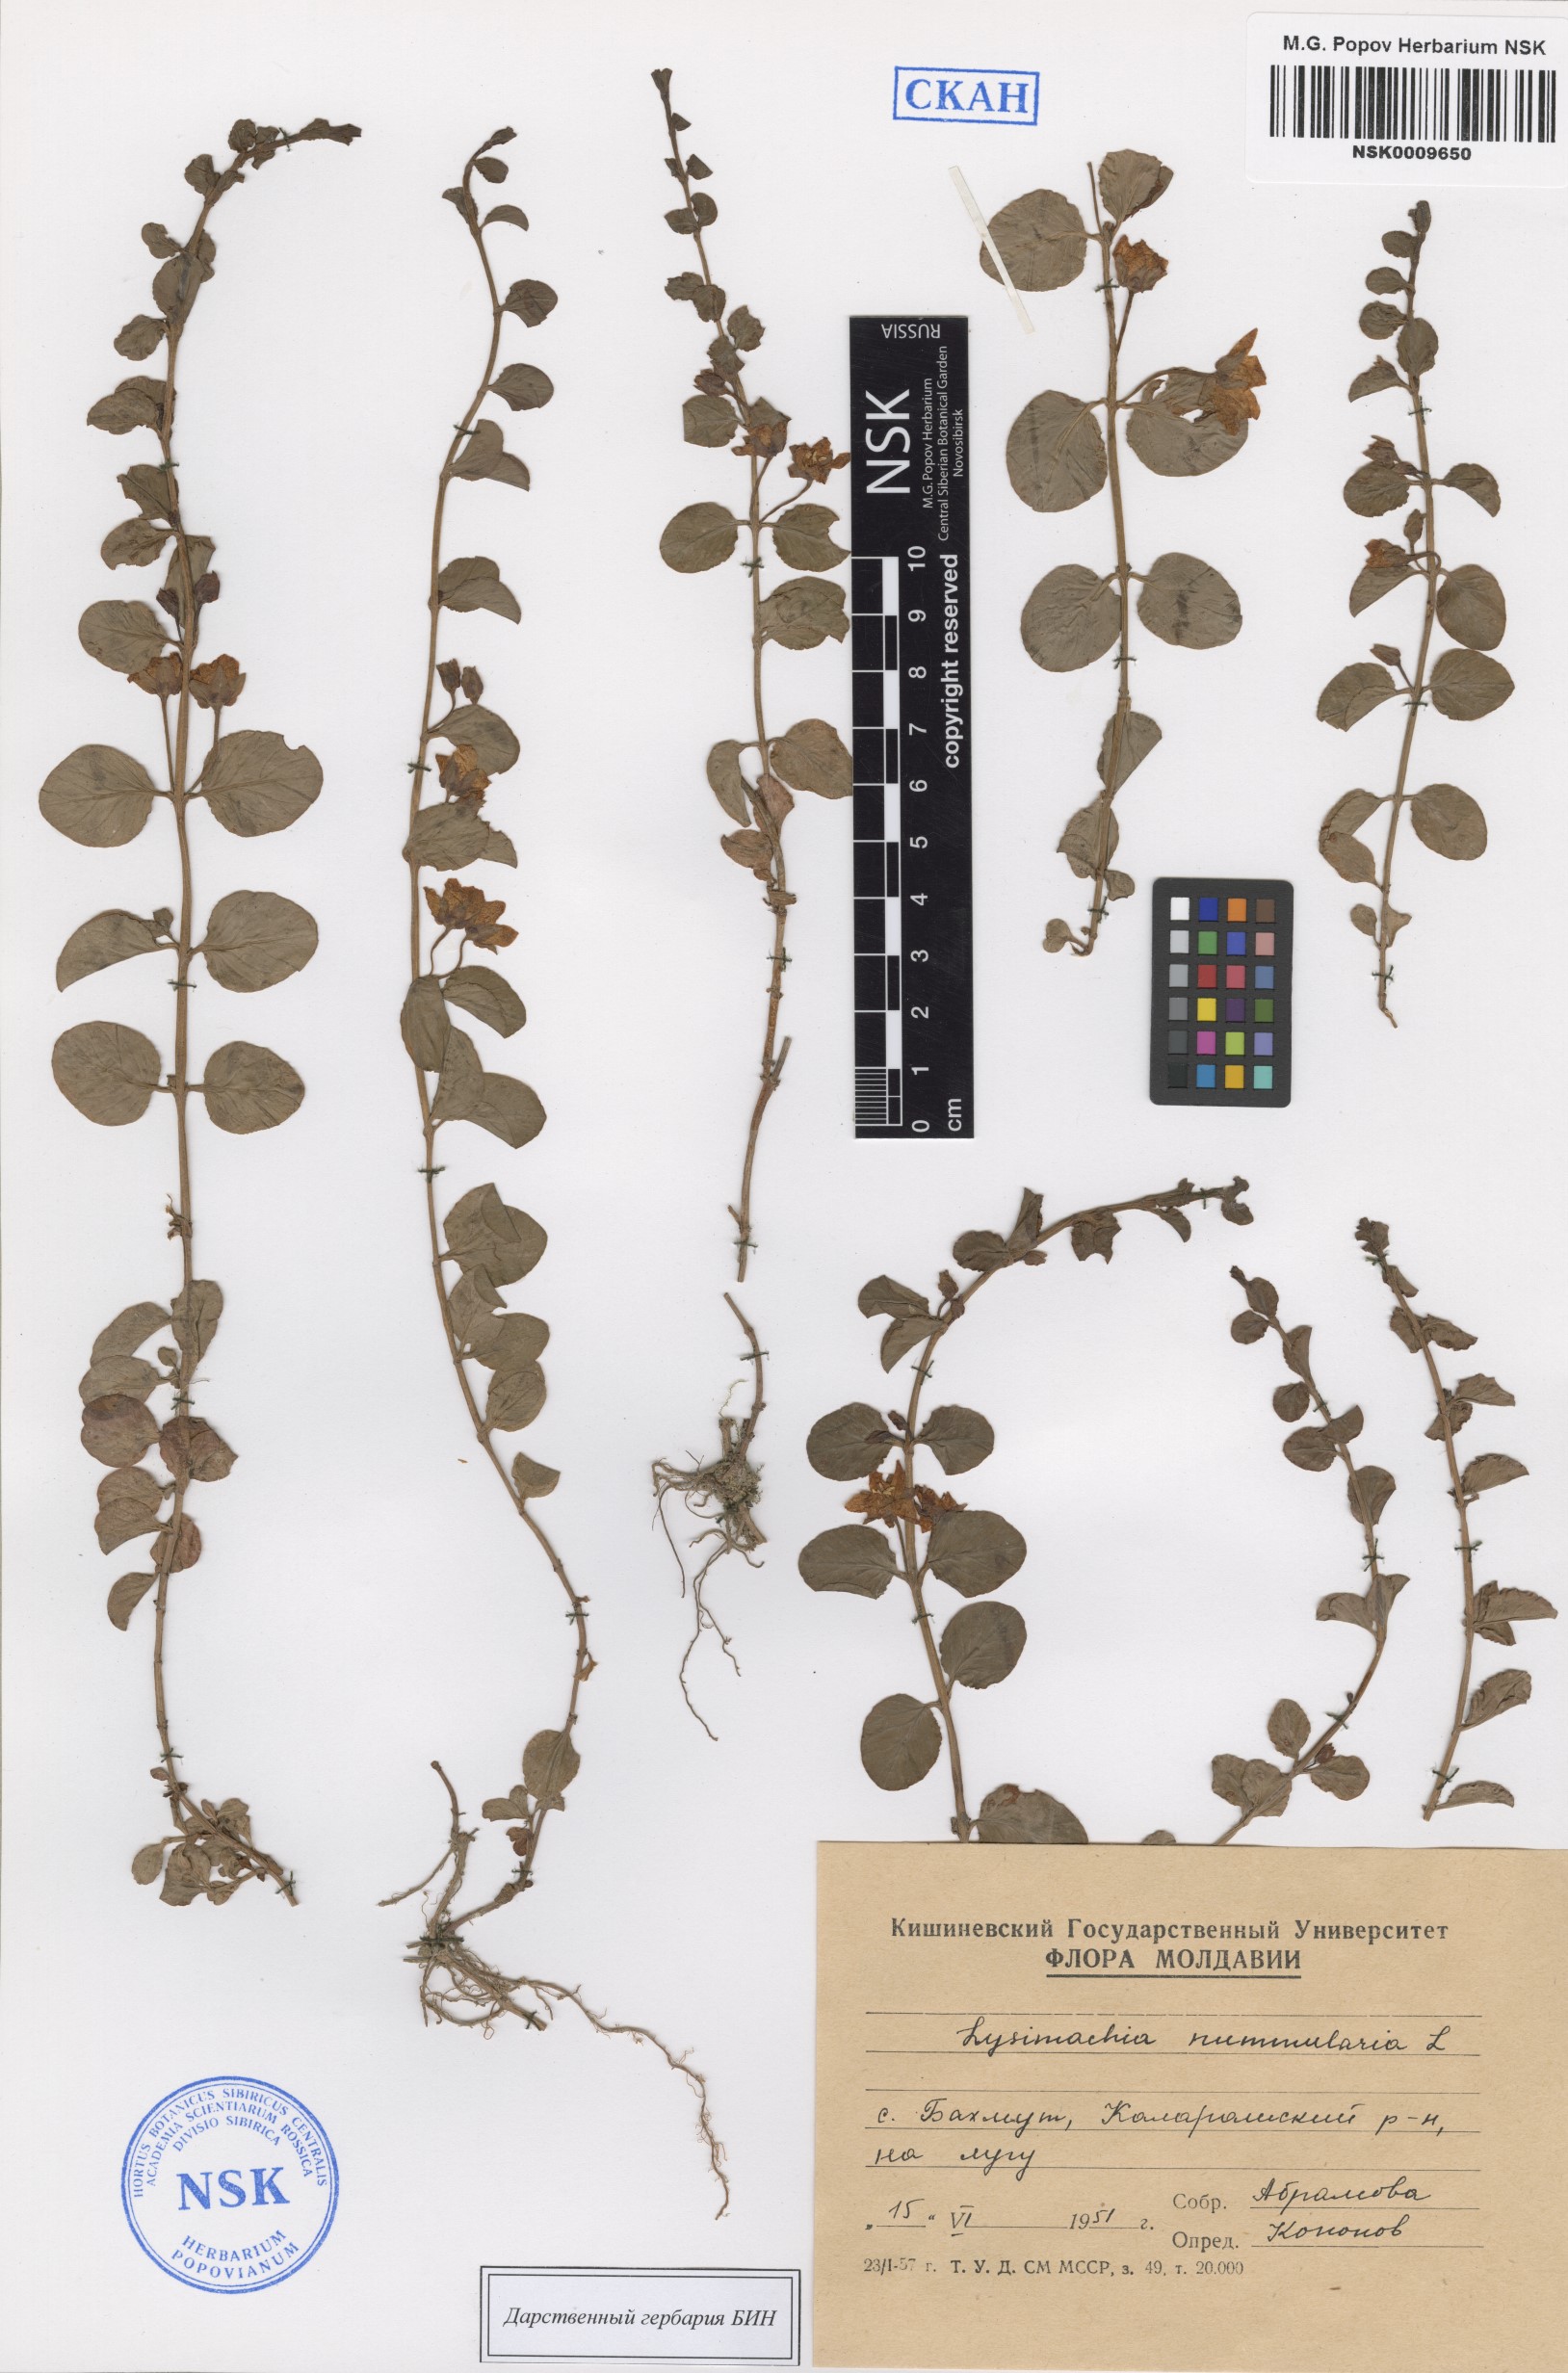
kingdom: Plantae
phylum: Tracheophyta
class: Magnoliopsida
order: Ericales
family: Primulaceae
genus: Lysimachia
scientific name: Lysimachia nummularia
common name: Moneywort
